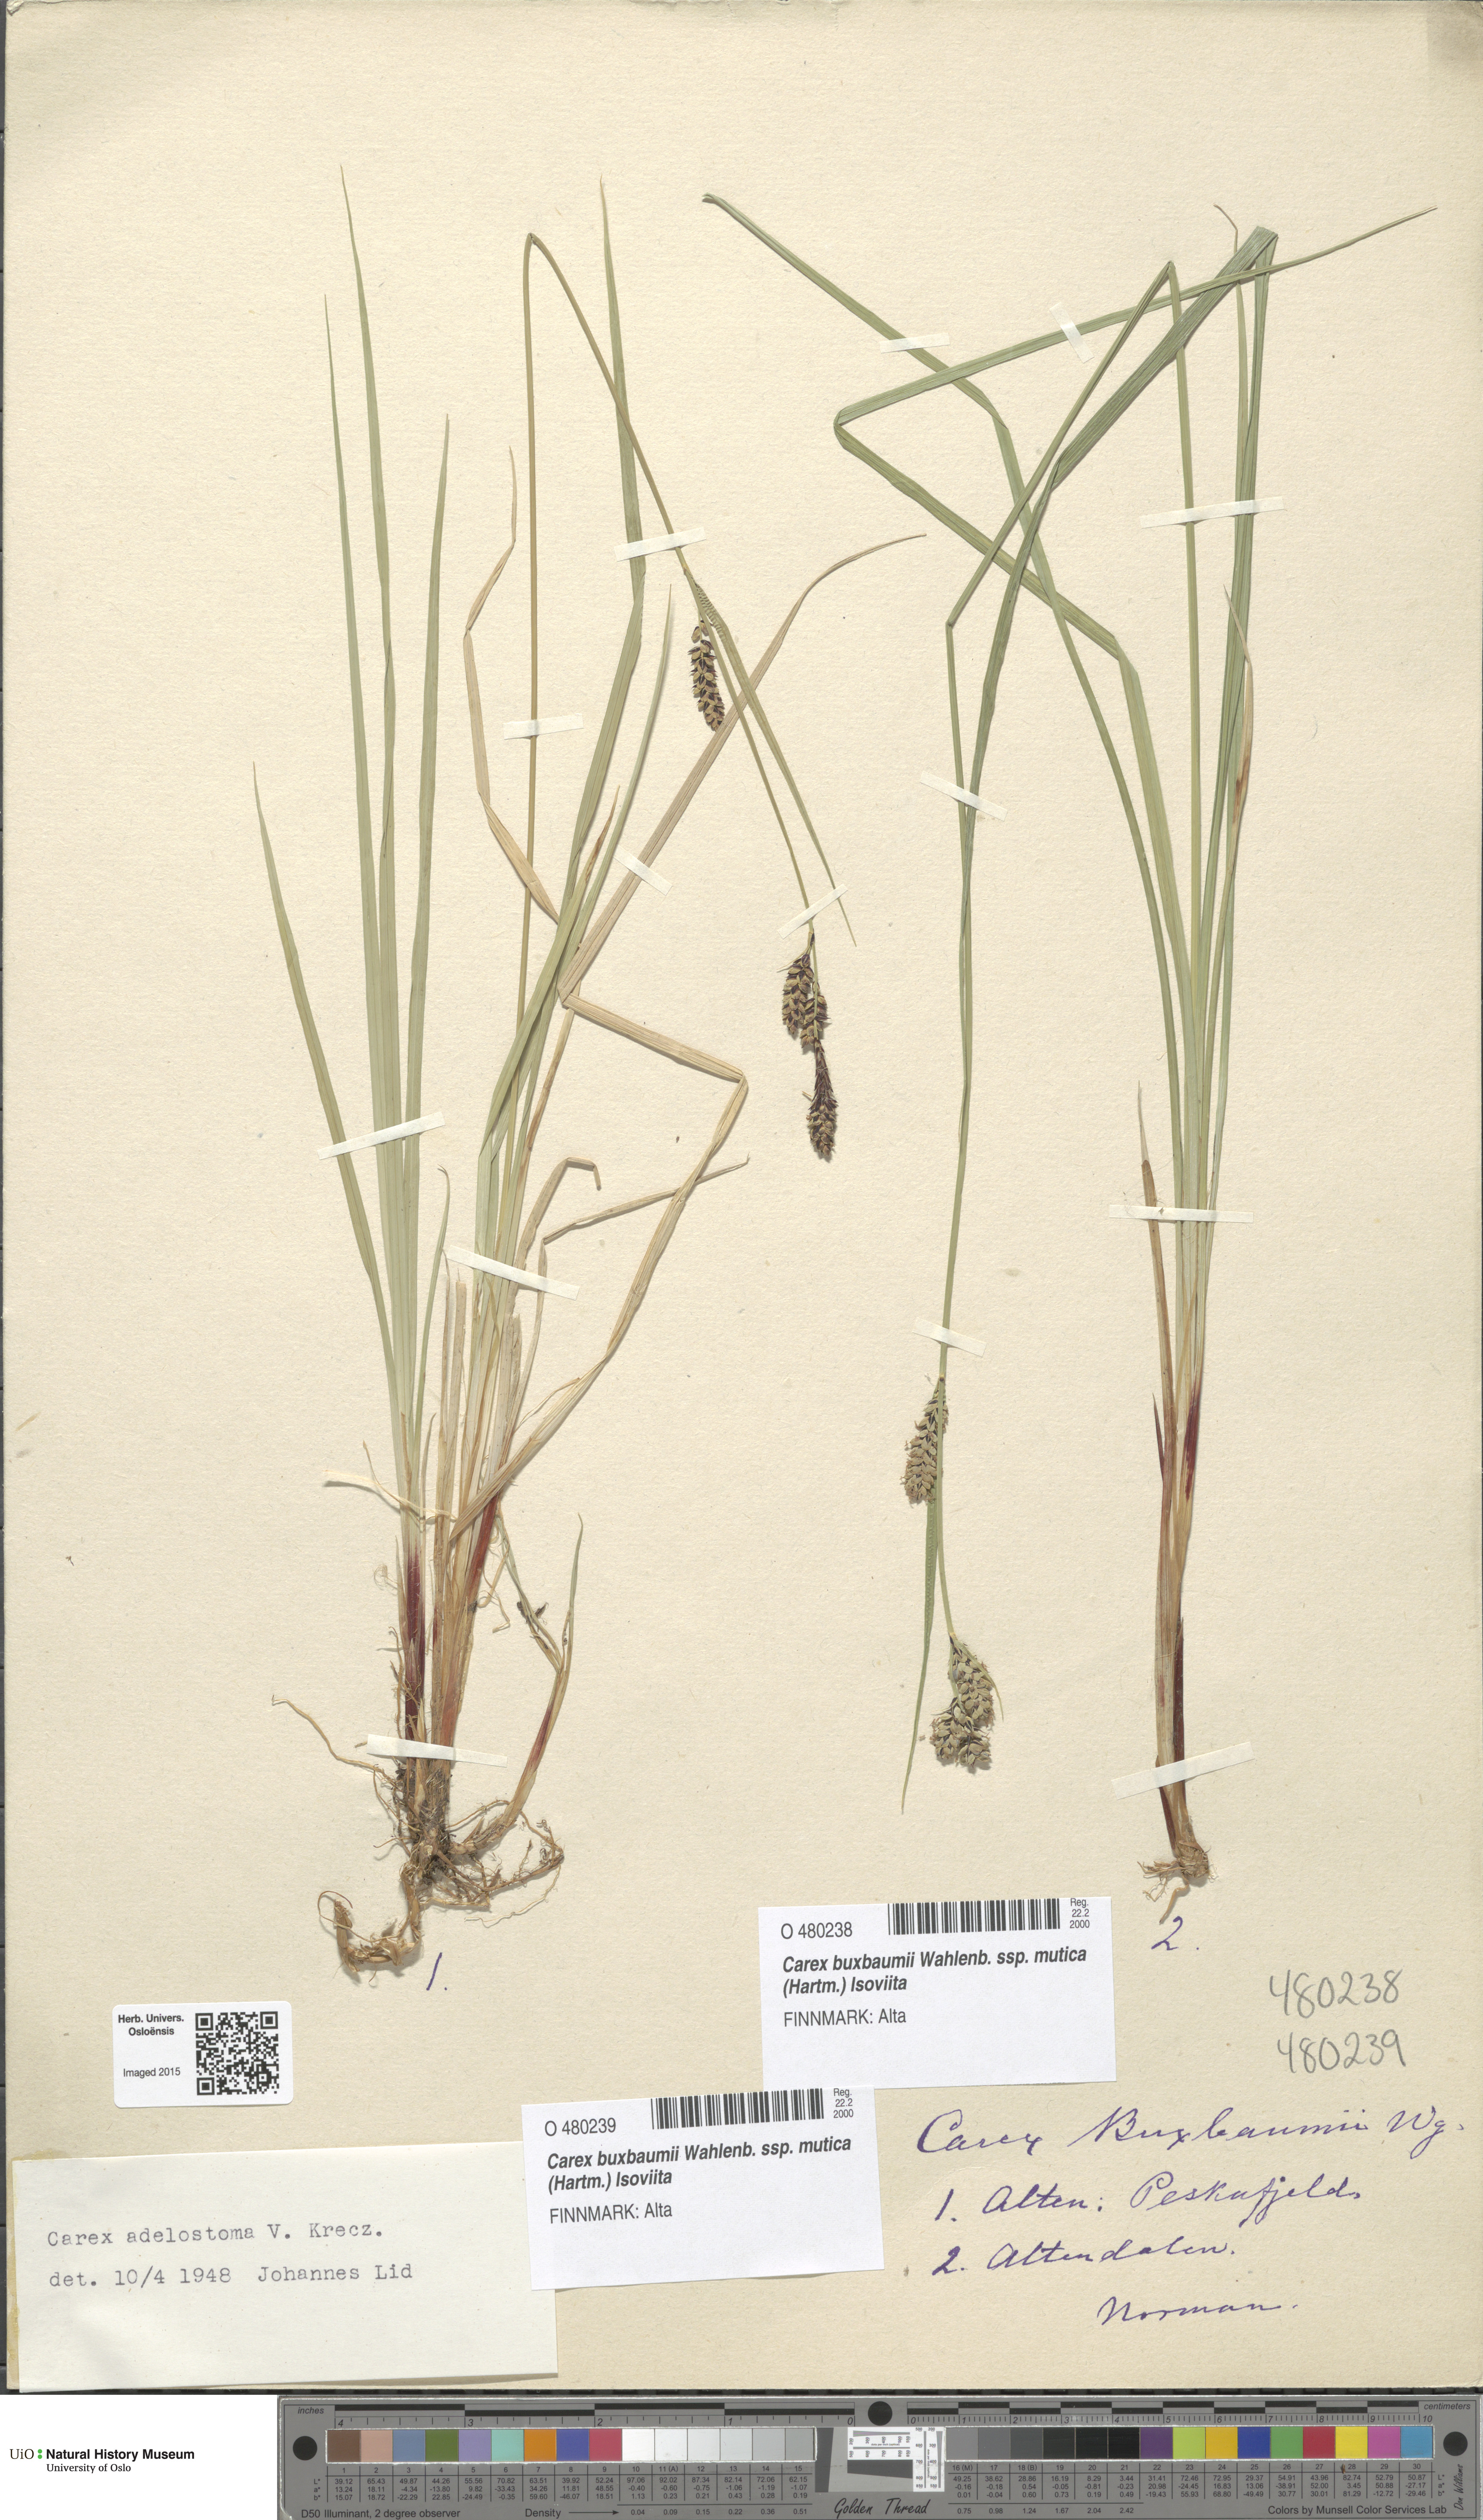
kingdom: Plantae
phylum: Tracheophyta
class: Liliopsida
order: Poales
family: Cyperaceae
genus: Carex
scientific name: Carex adelostoma
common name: Circumpolar sedge
